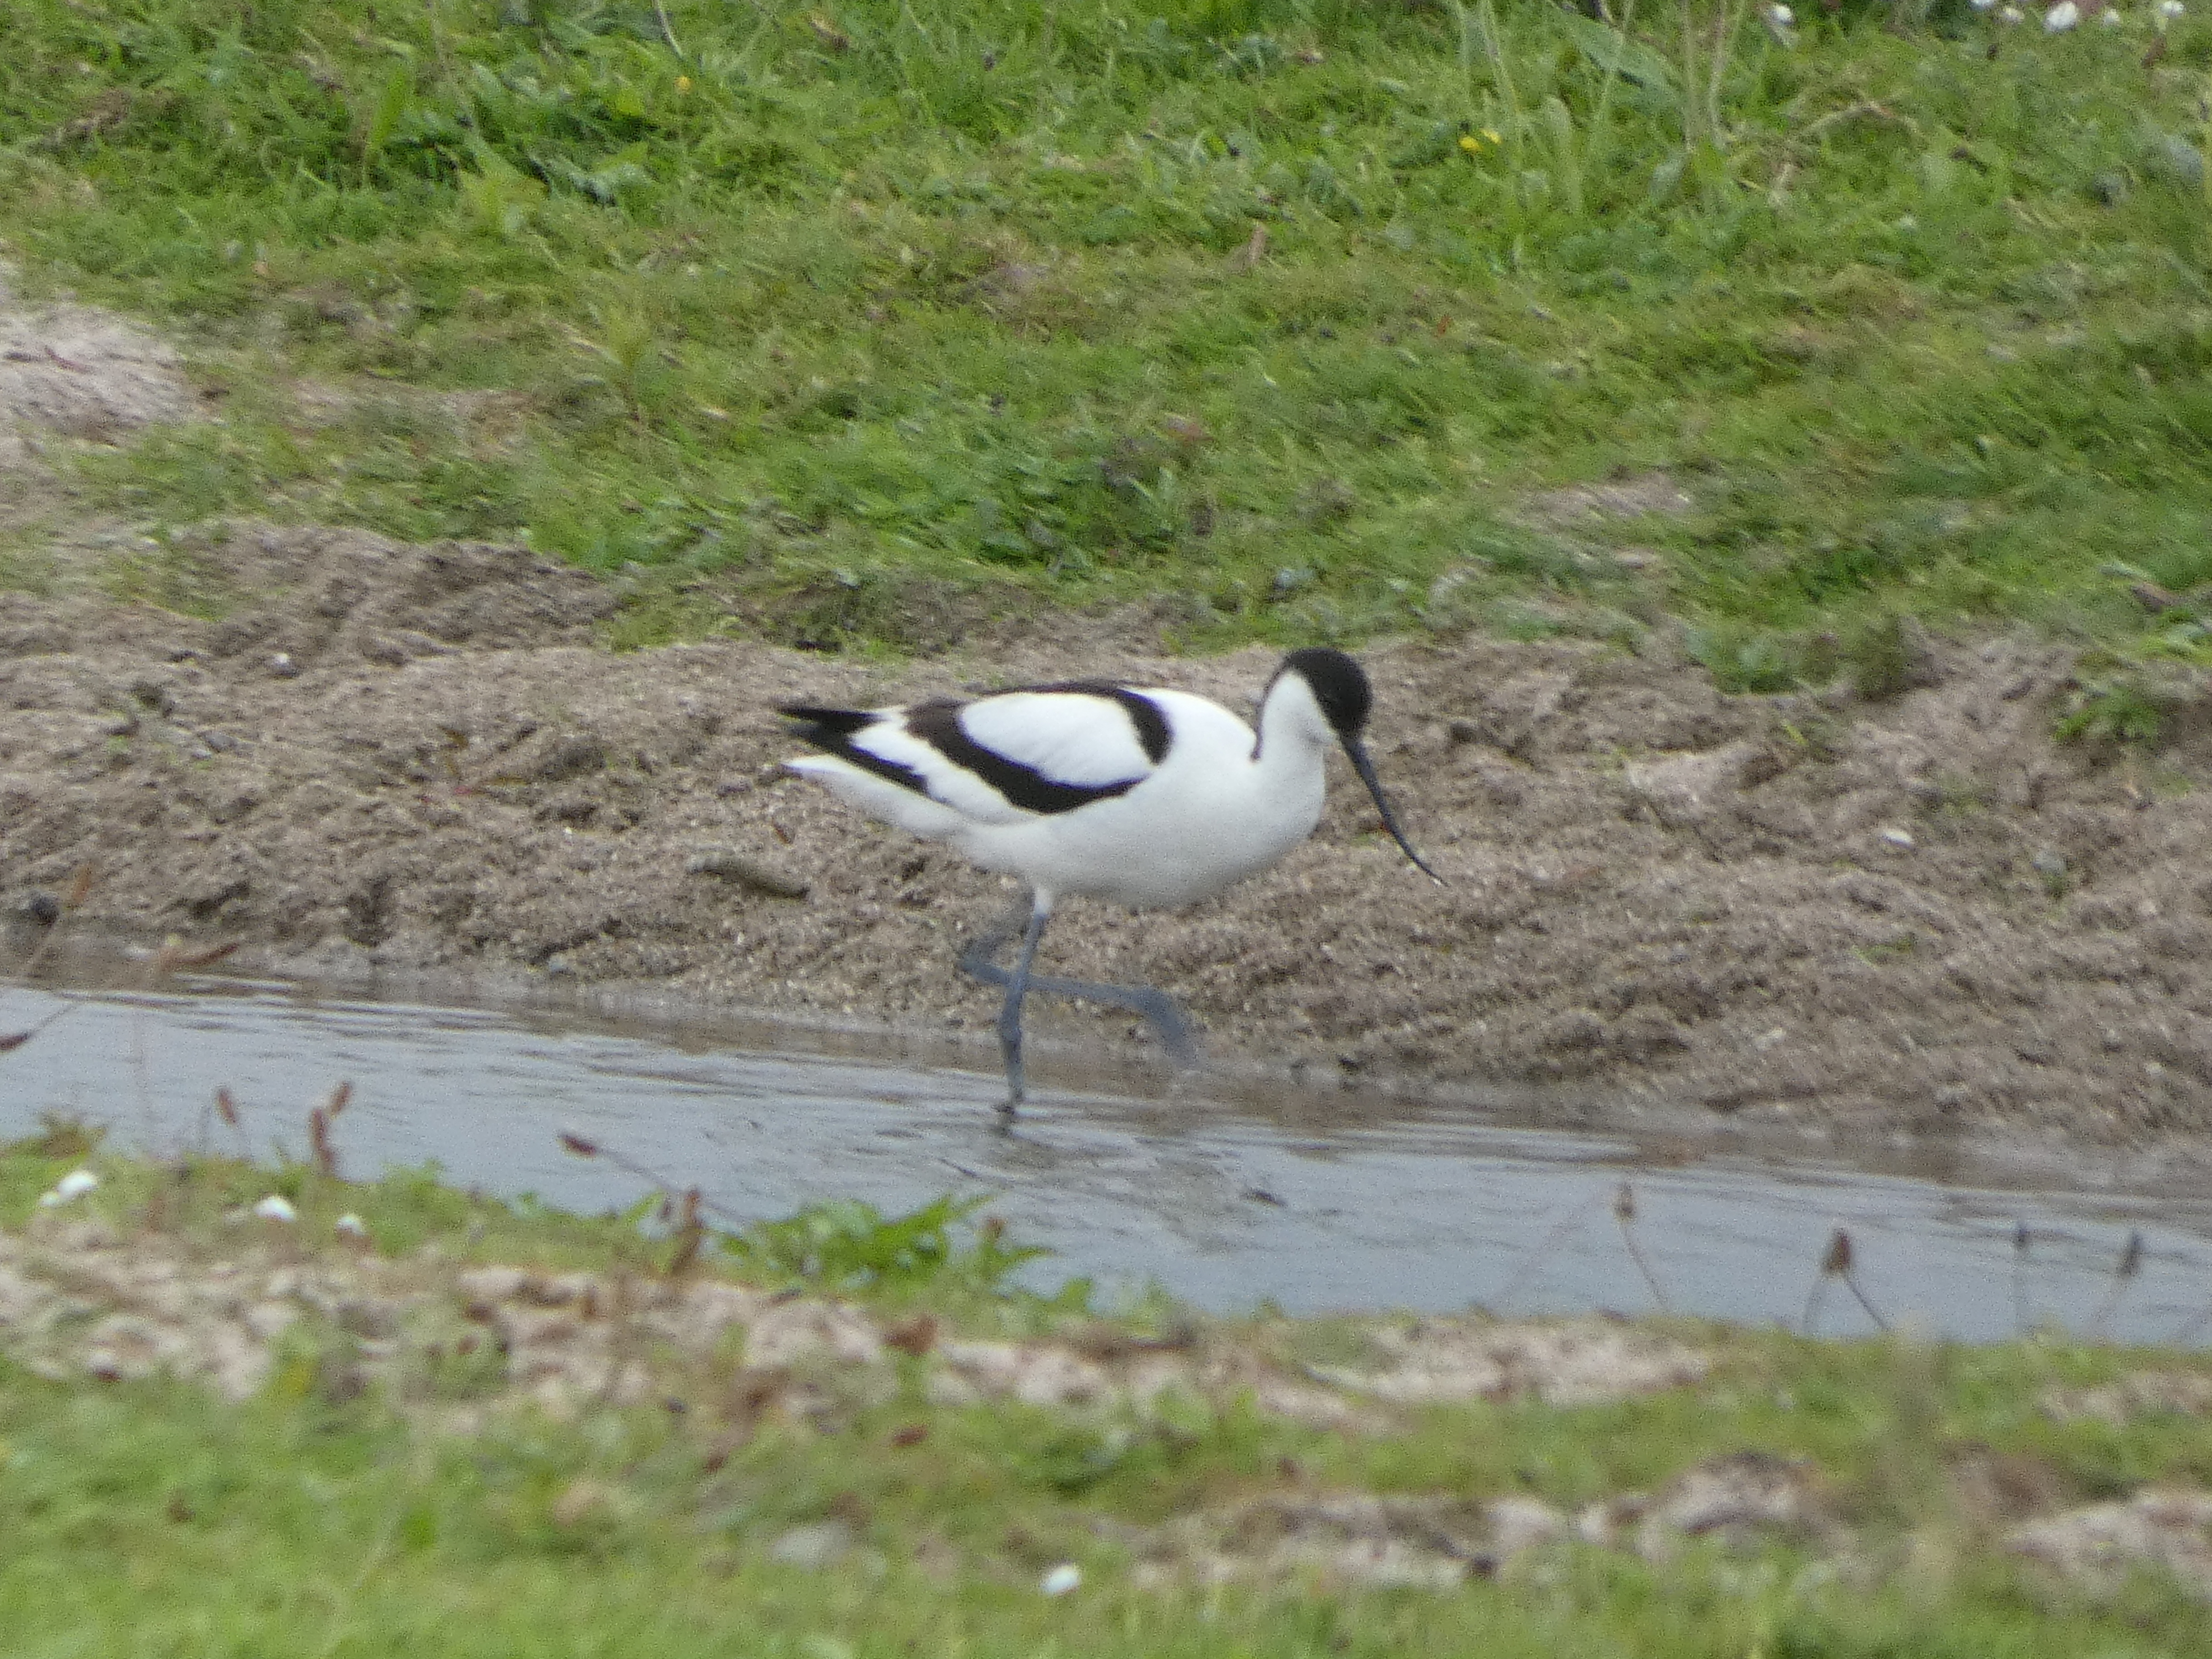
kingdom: Animalia
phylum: Chordata
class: Aves
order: Charadriiformes
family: Recurvirostridae
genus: Recurvirostra
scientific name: Recurvirostra avosetta
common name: Klyde
